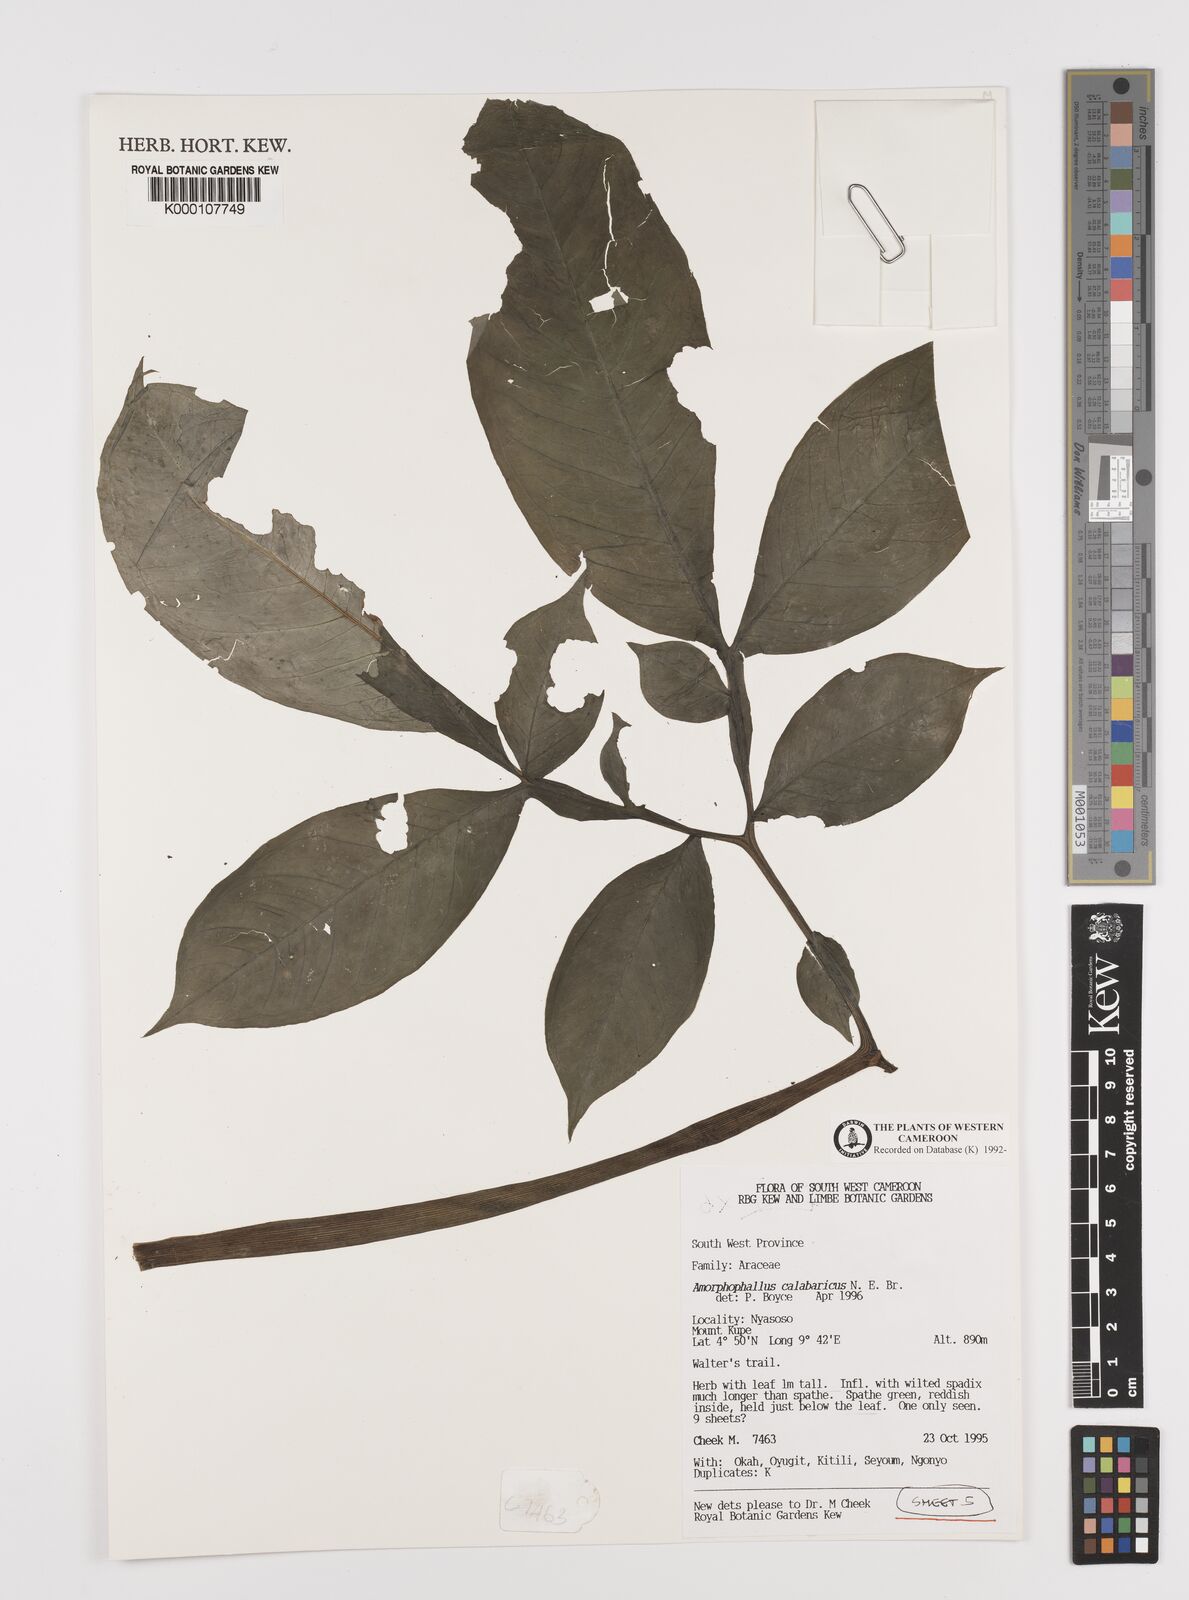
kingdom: Plantae
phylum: Tracheophyta
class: Liliopsida
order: Alismatales
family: Araceae
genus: Amorphophallus
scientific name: Amorphophallus calabaricus
